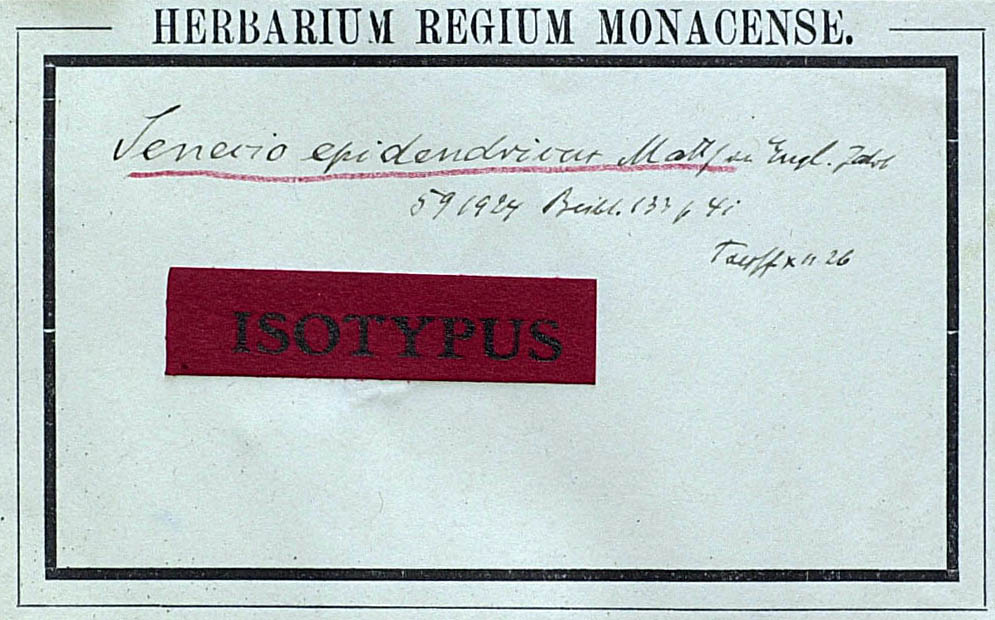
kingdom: Plantae
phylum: Tracheophyta
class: Magnoliopsida
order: Asterales
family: Asteraceae
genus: Solanecio
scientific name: Solanecio epidendricus
